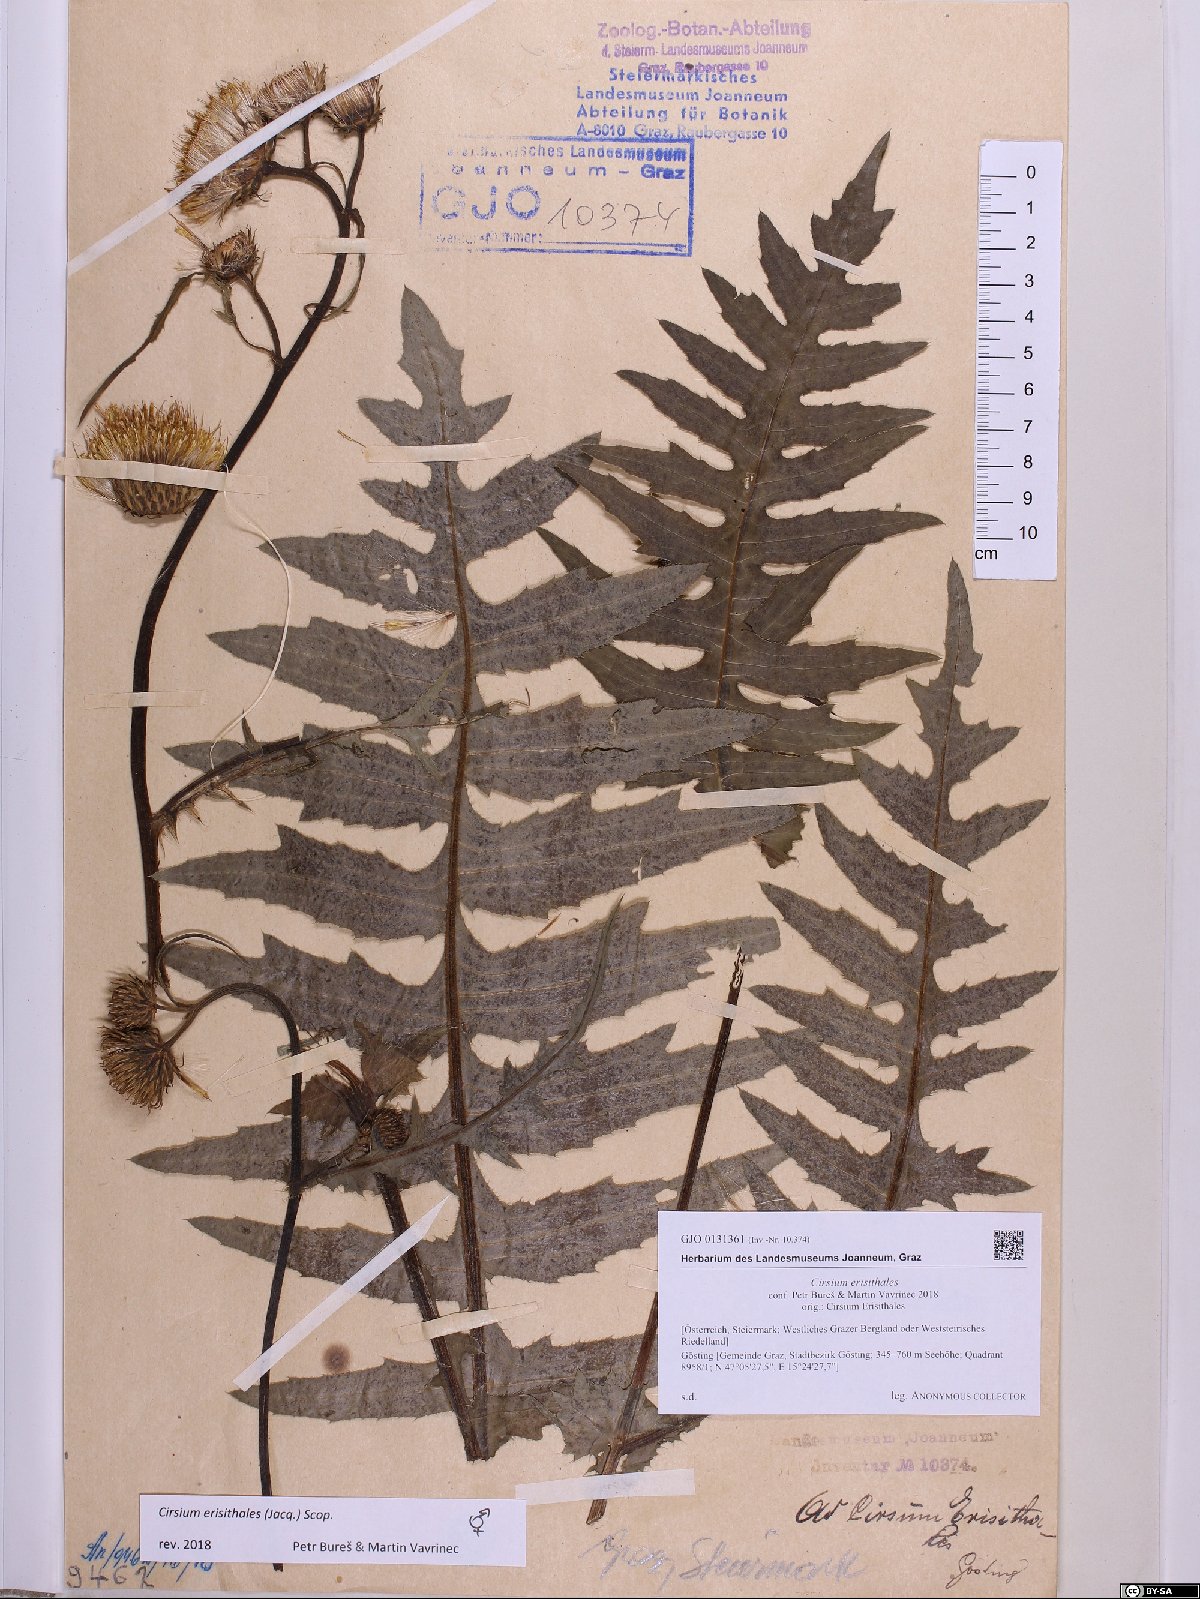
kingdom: Plantae
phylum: Tracheophyta
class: Magnoliopsida
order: Asterales
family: Asteraceae
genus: Cirsium
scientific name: Cirsium erisithales
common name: Yellow thistle
